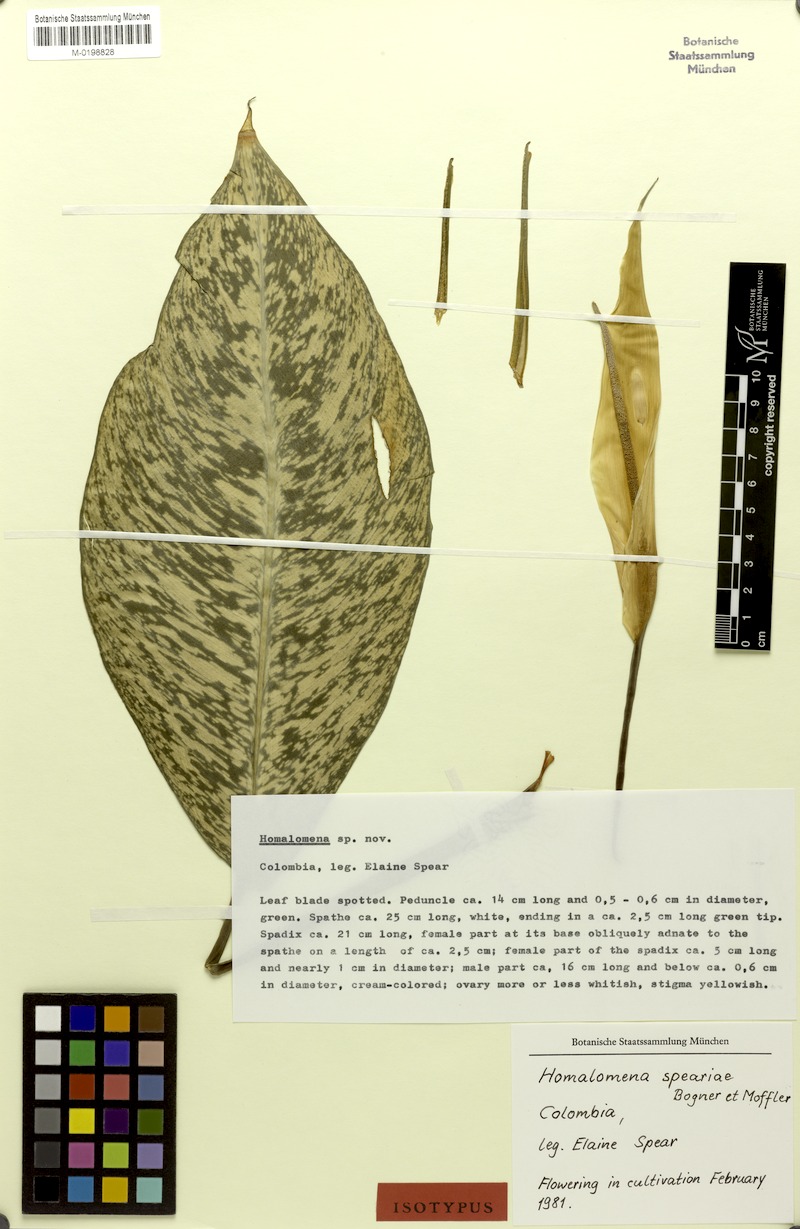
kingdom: Plantae
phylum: Tracheophyta
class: Liliopsida
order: Alismatales
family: Araceae
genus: Adelonema
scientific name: Adelonema speariae
